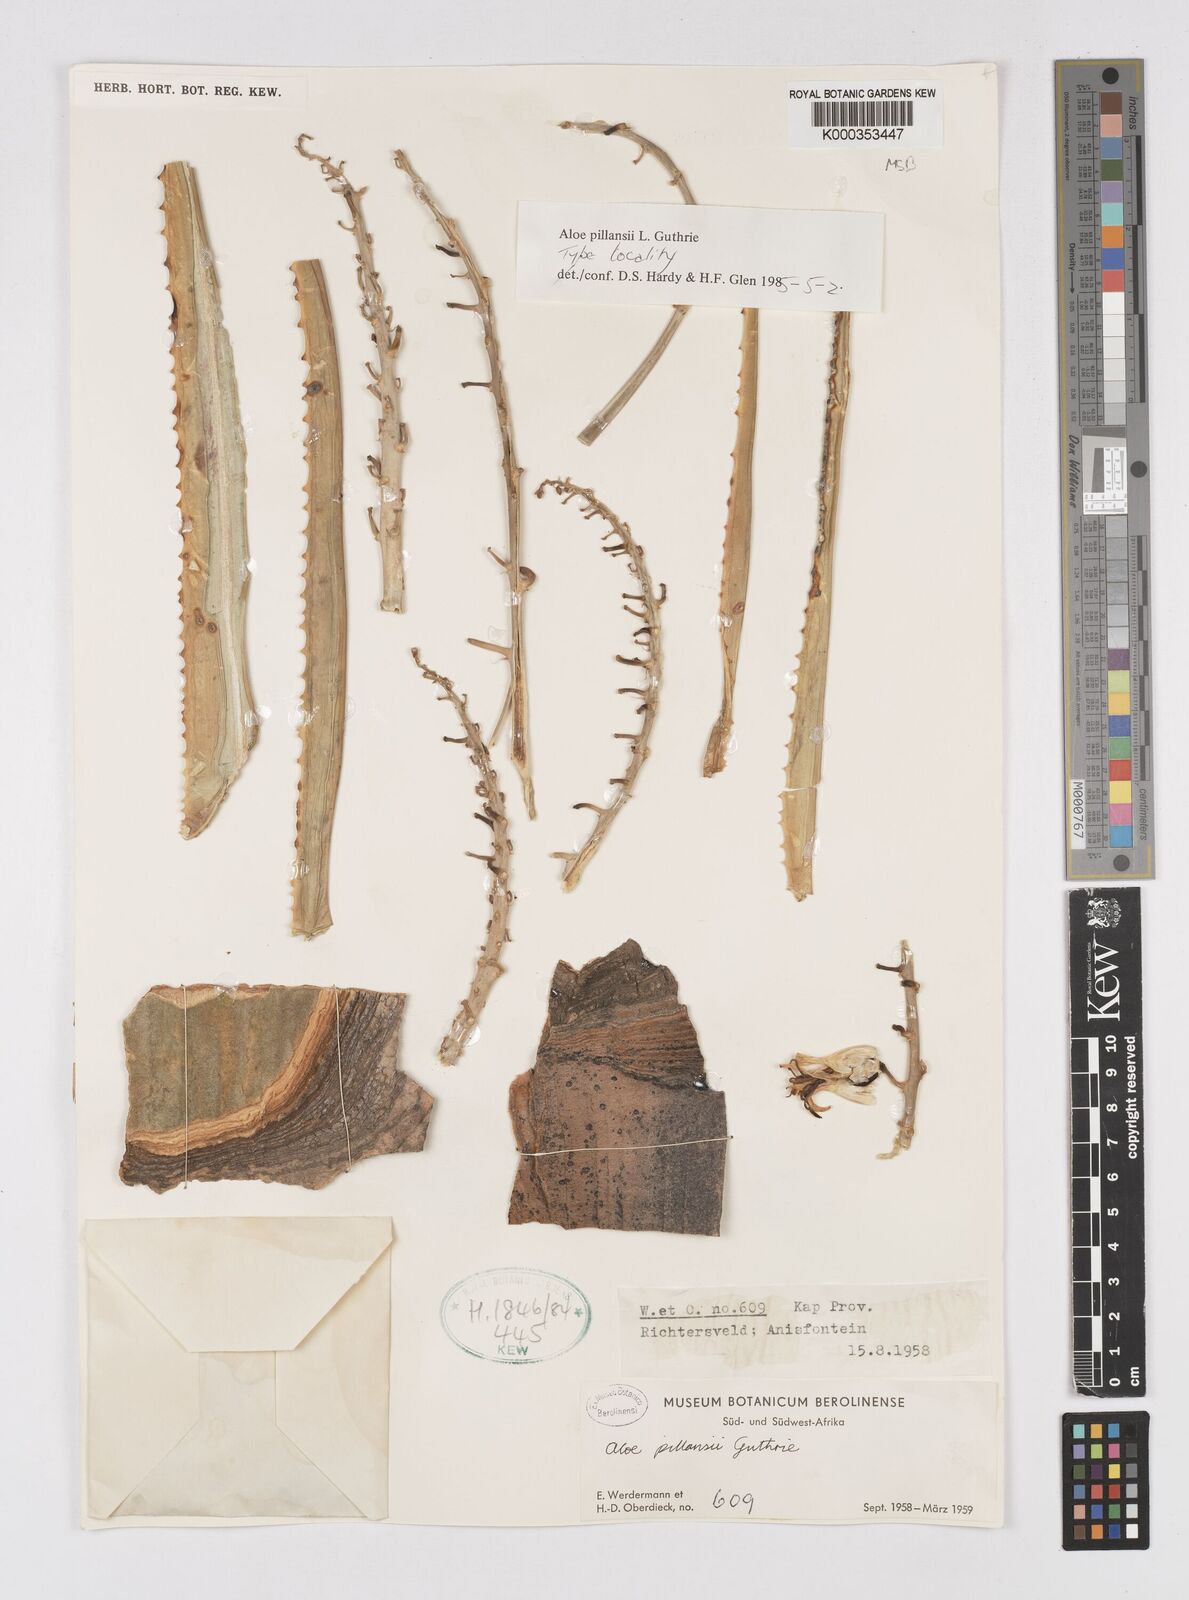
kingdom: Plantae
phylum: Tracheophyta
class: Liliopsida
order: Asparagales
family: Asphodelaceae
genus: Aloidendron
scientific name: Aloidendron pillansii
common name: Bastard quiver tree
